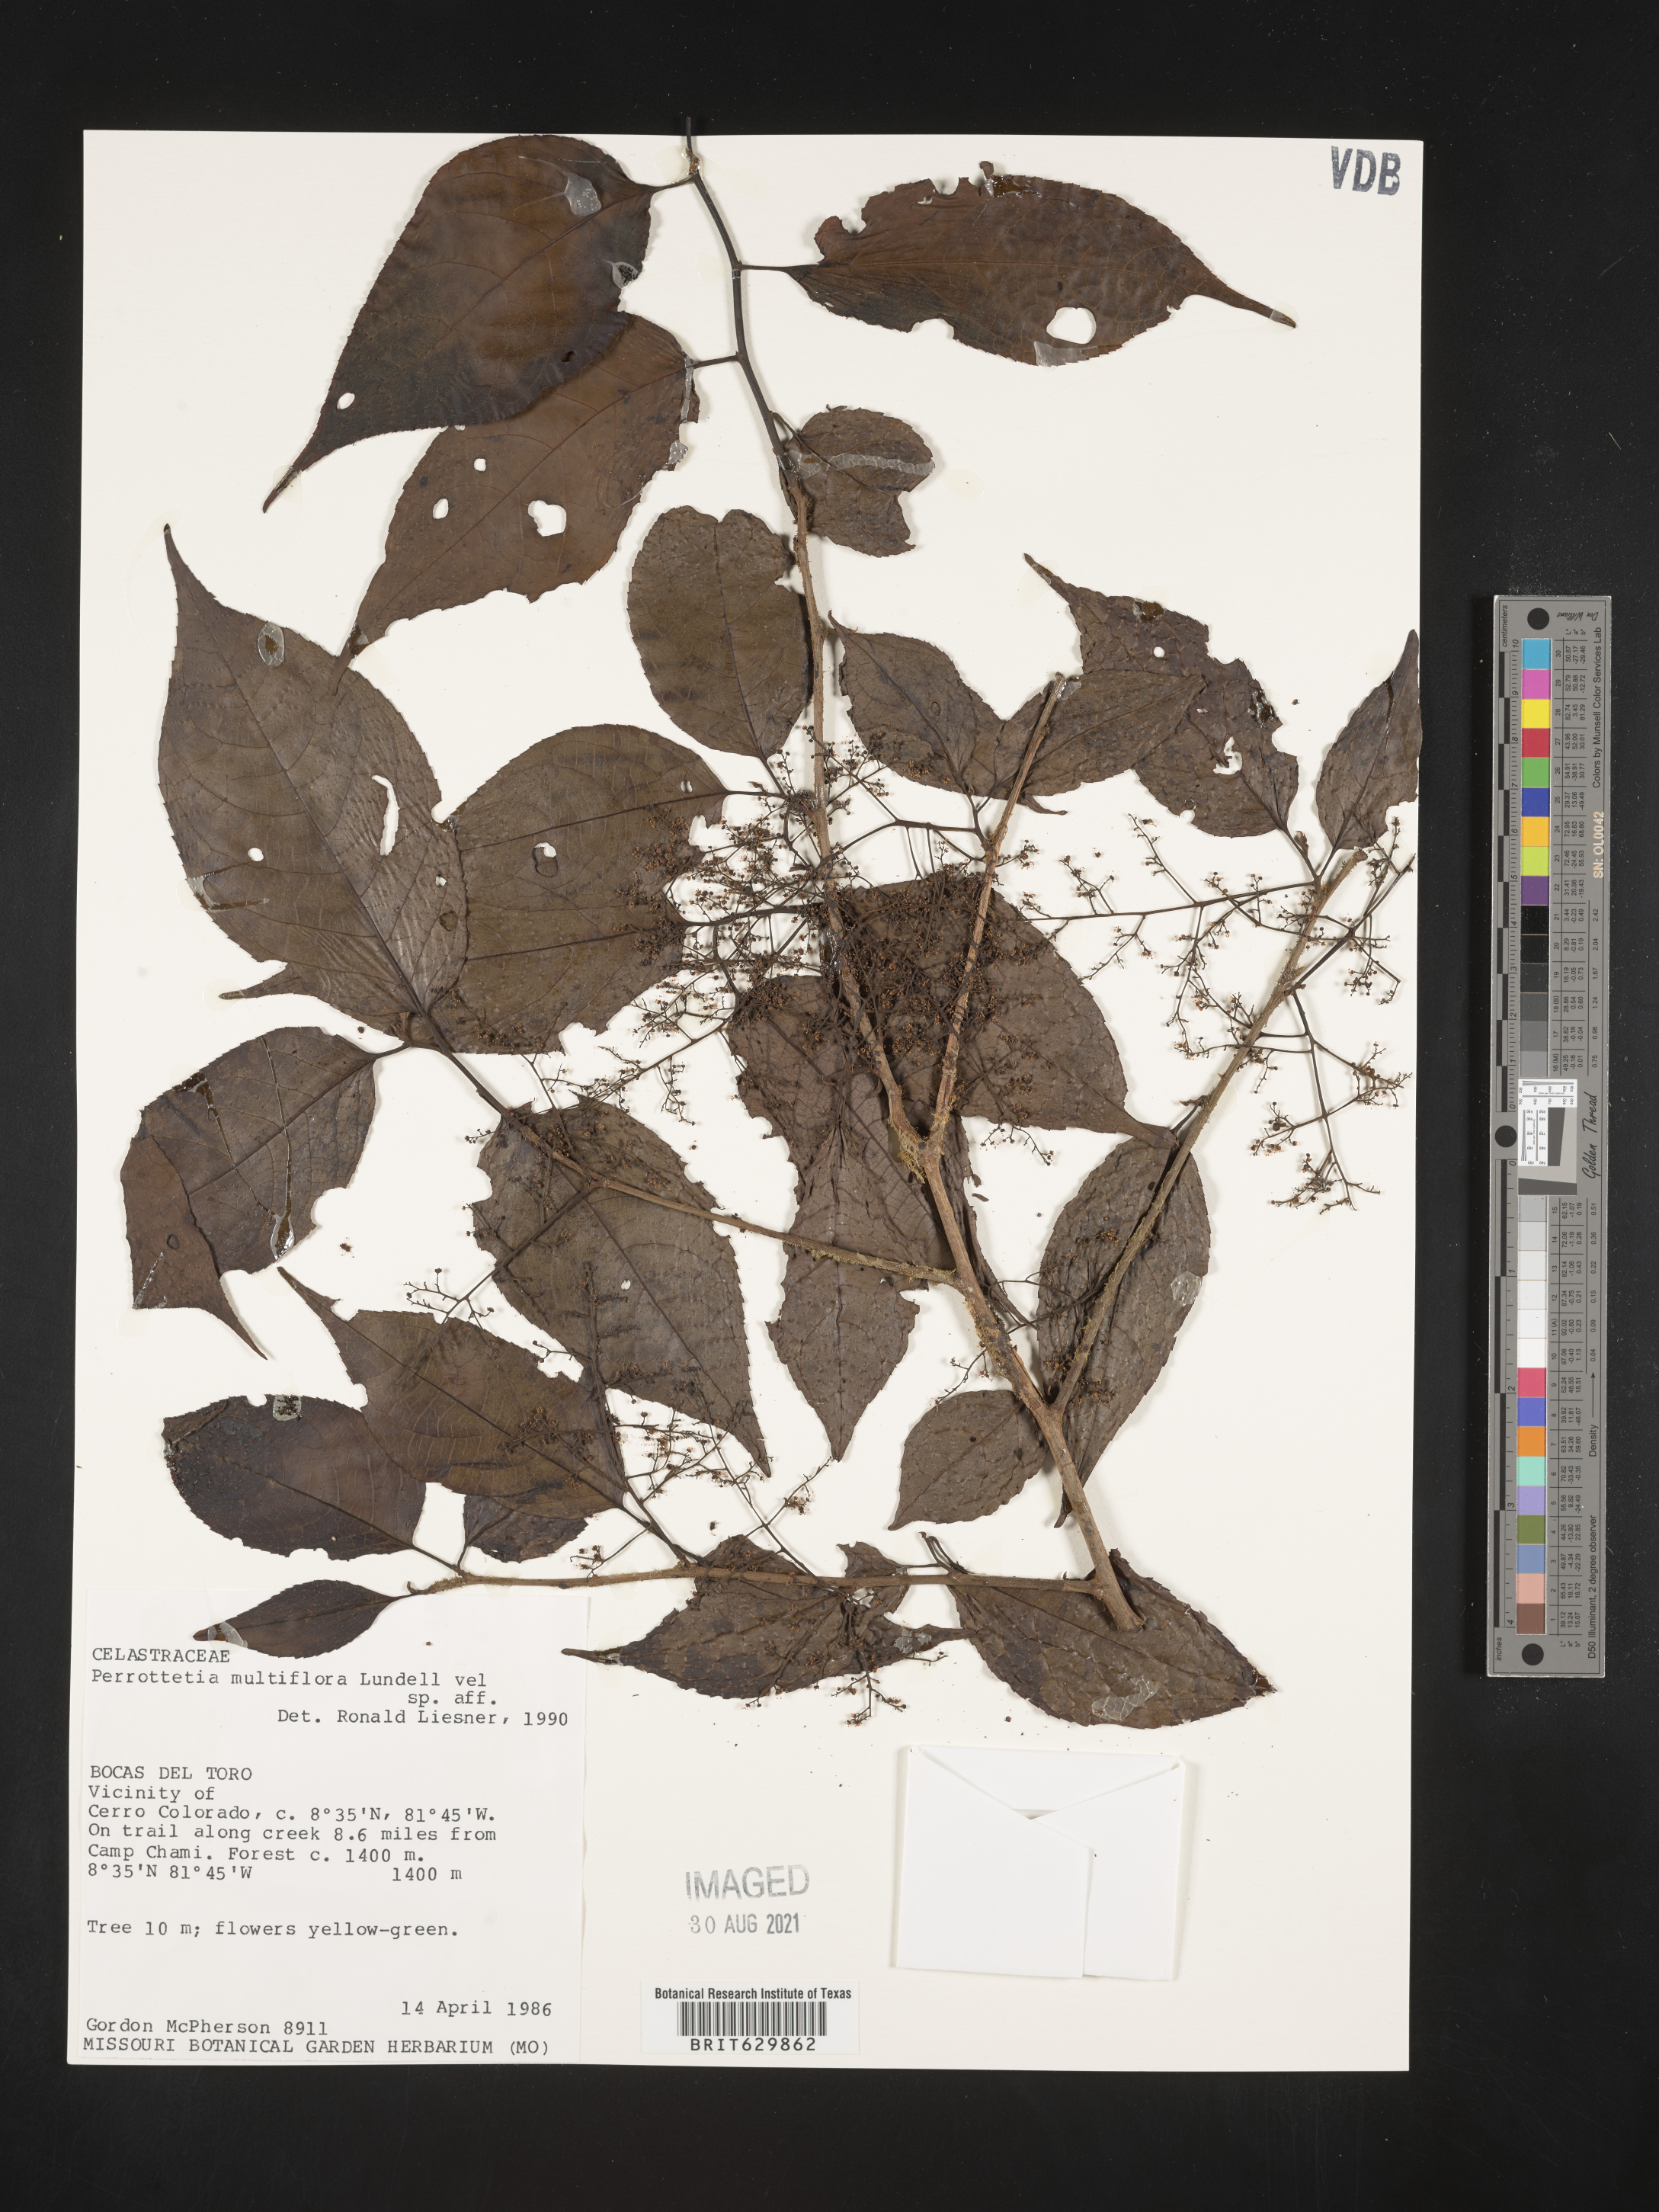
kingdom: Plantae
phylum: Tracheophyta
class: Magnoliopsida
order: Huerteales
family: Dipentodontaceae
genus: Perrottetia
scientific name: Perrottetia
